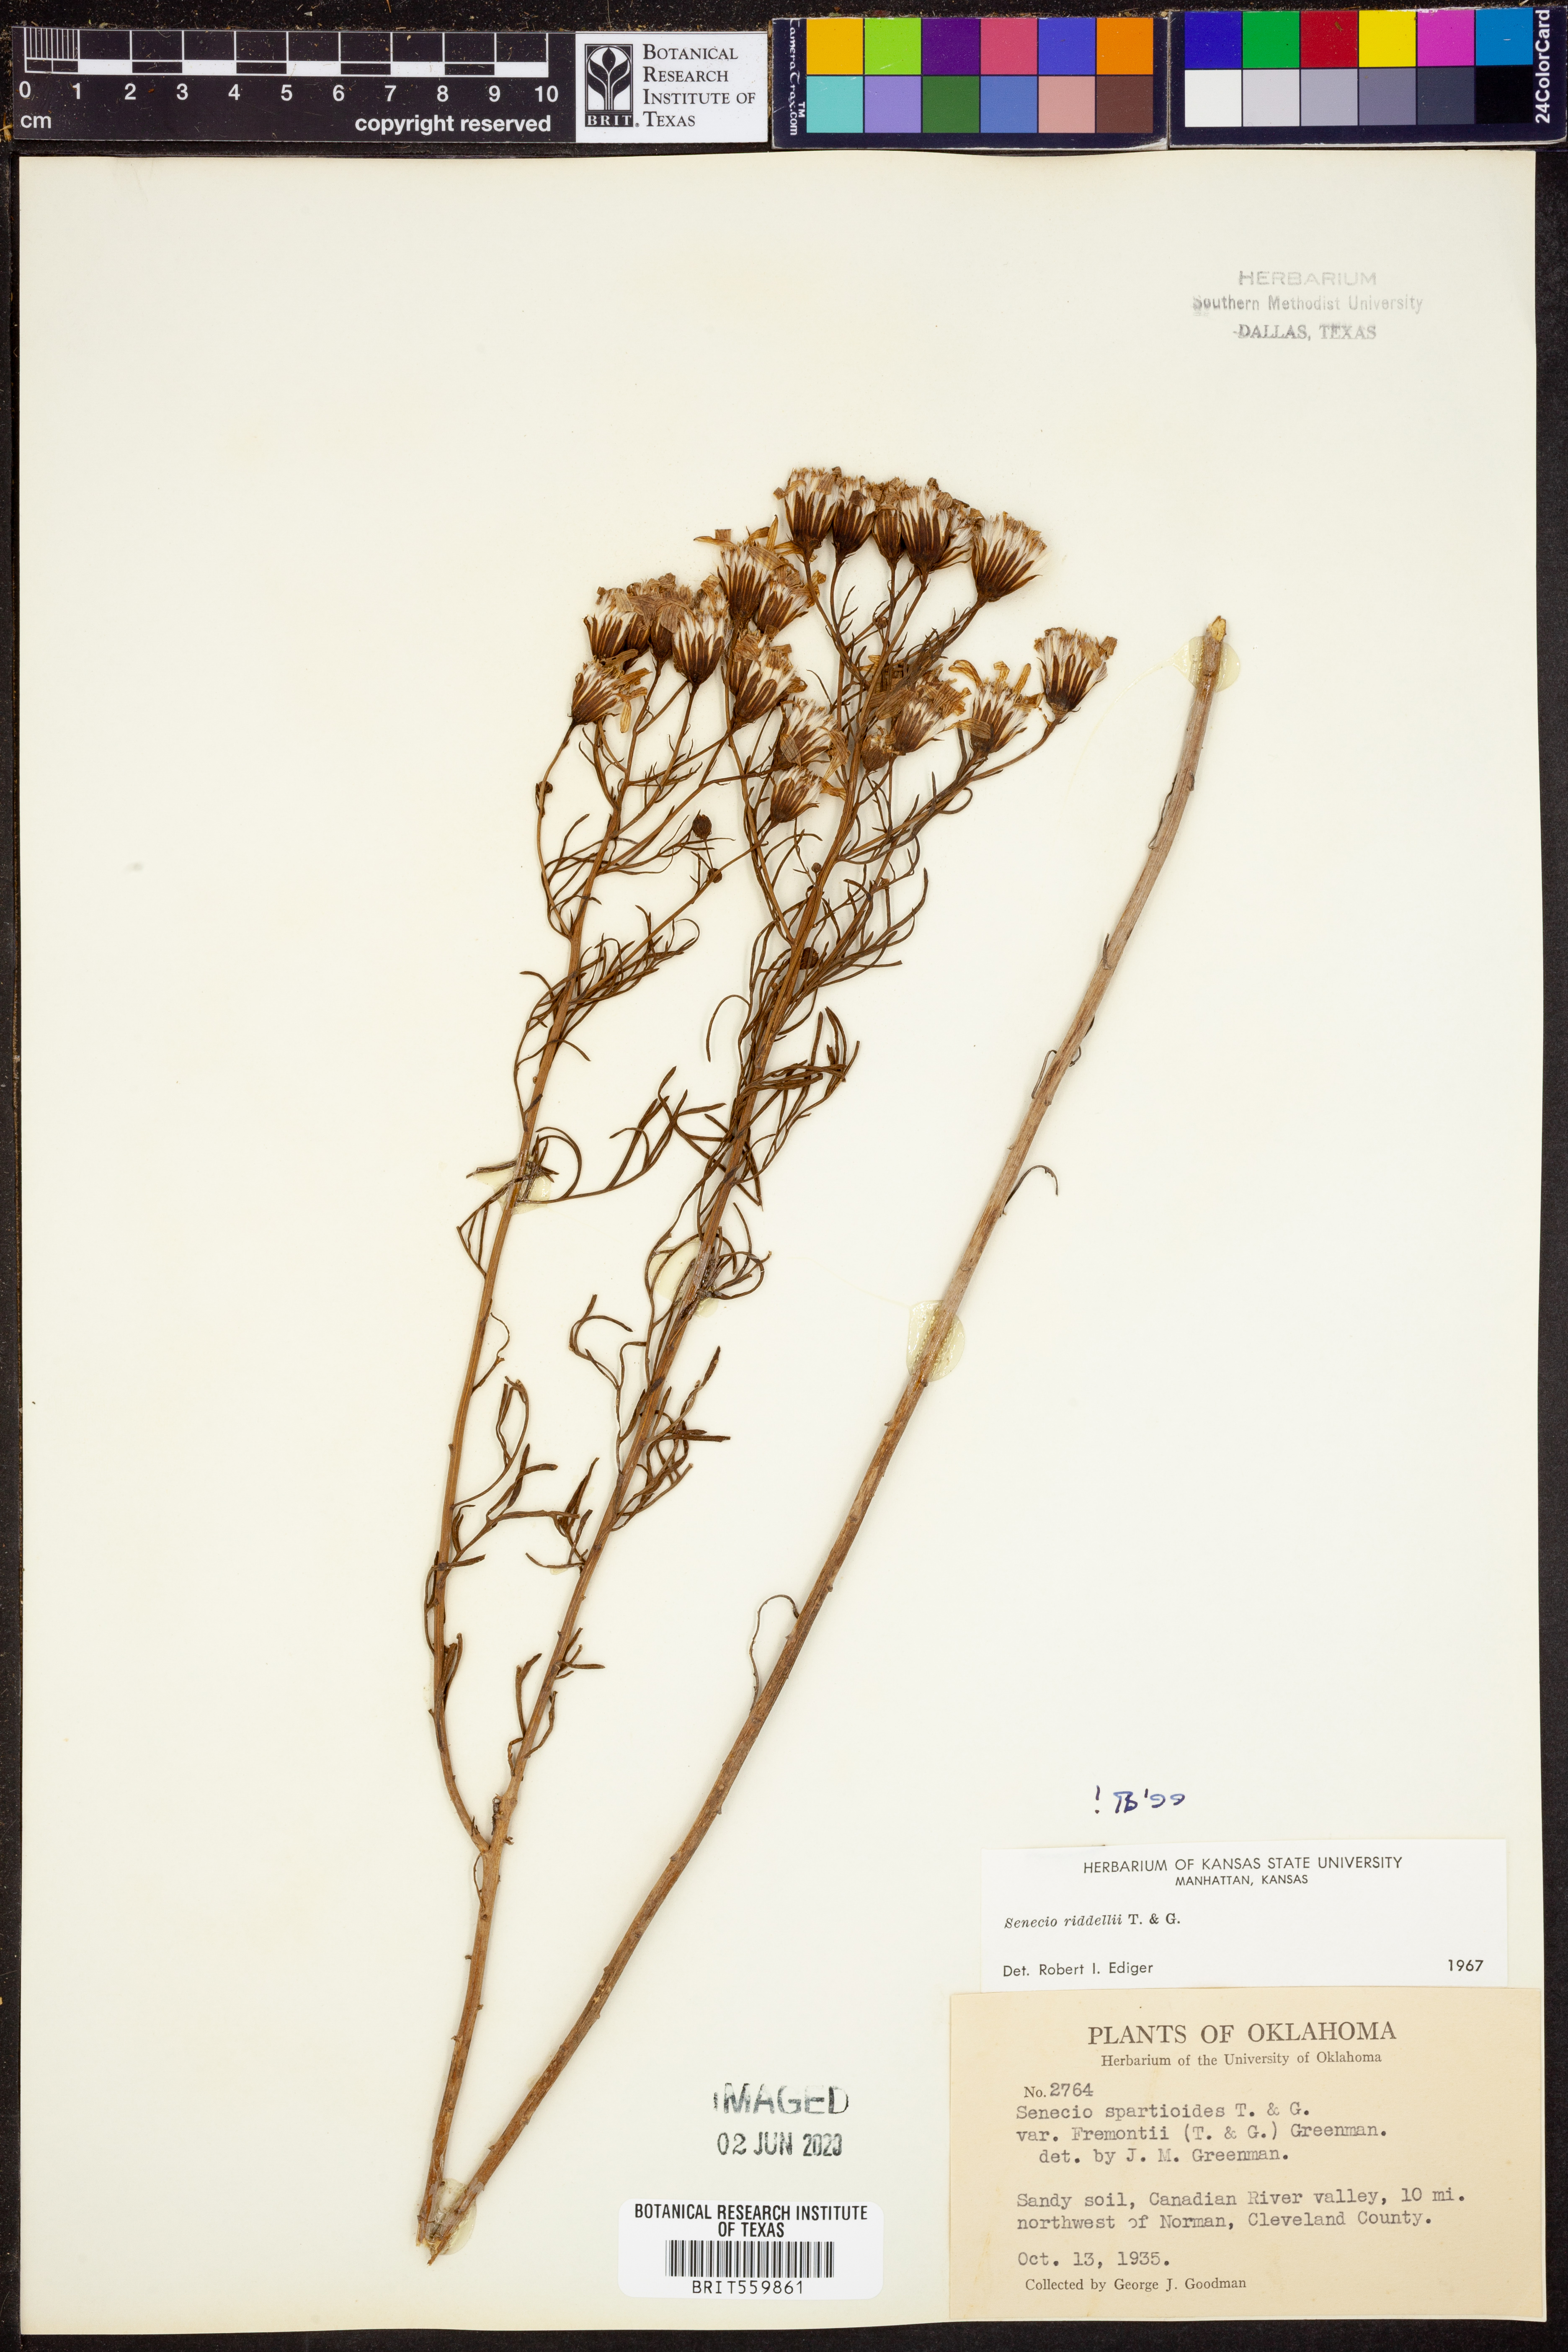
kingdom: Plantae
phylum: Tracheophyta
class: Magnoliopsida
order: Asterales
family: Asteraceae
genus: Senecio
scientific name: Senecio riddellii
